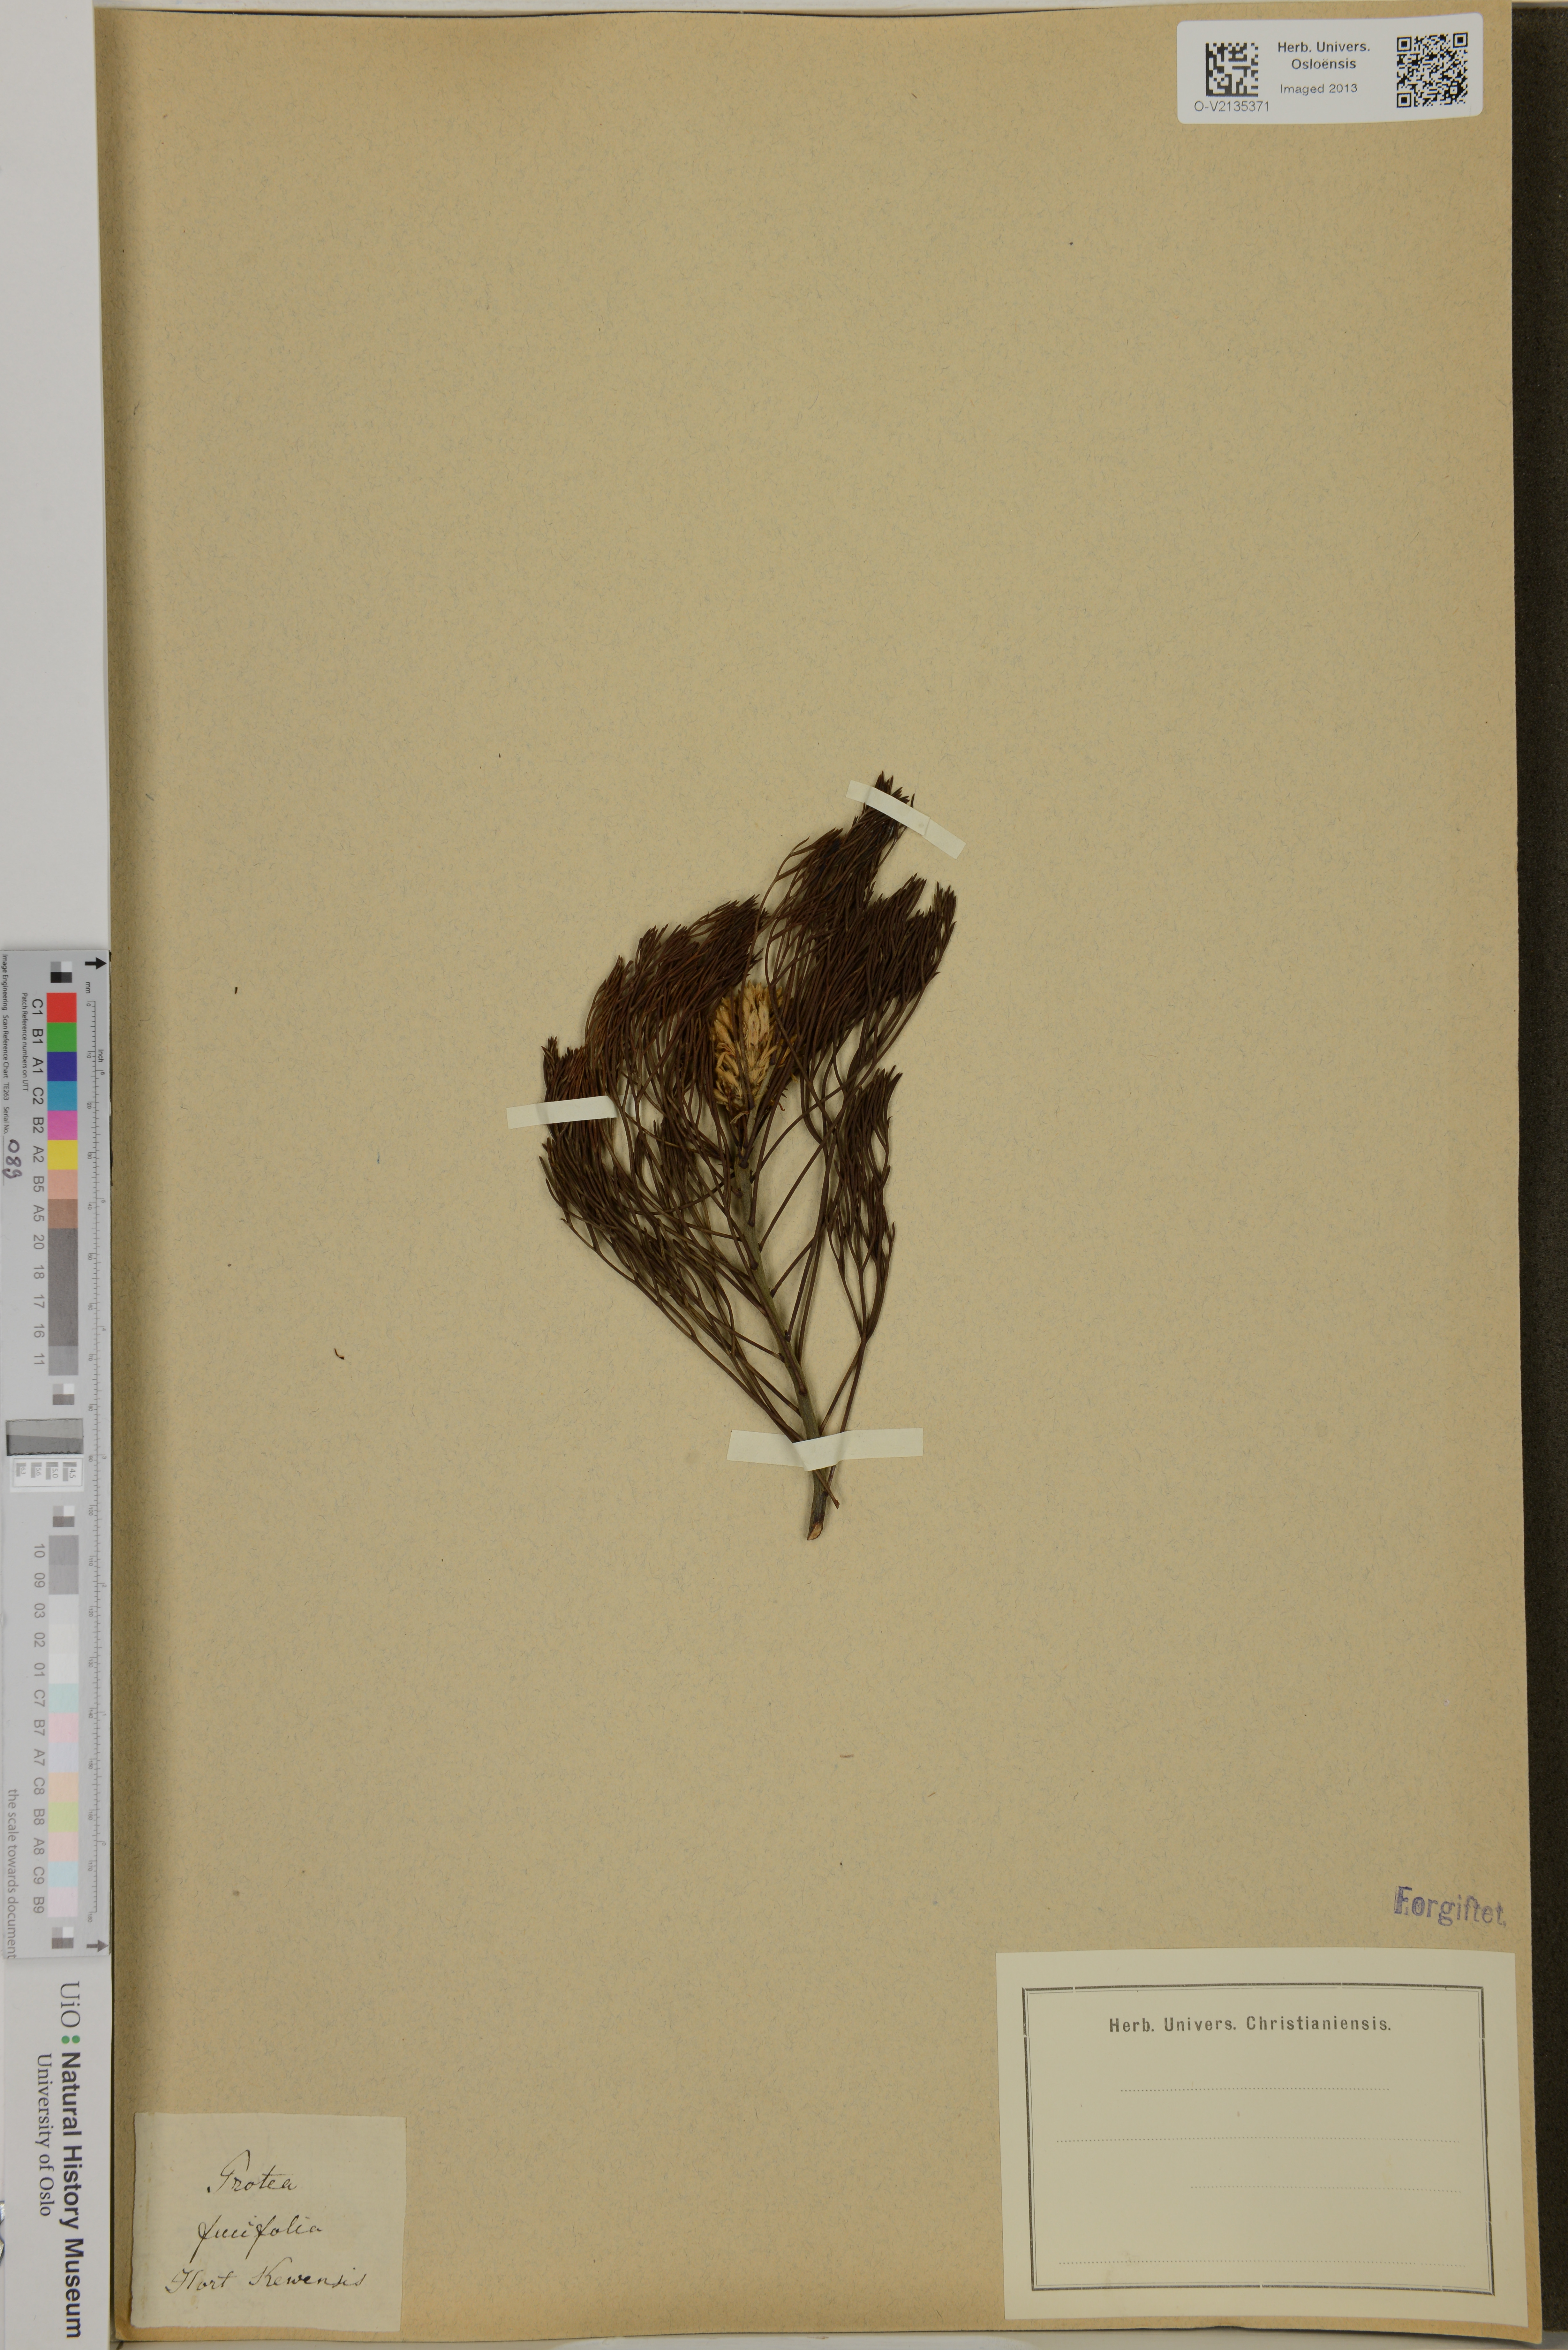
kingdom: Plantae
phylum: Tracheophyta
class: Magnoliopsida
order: Proteales
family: Proteaceae
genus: Protea
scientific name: Protea fucifolia
